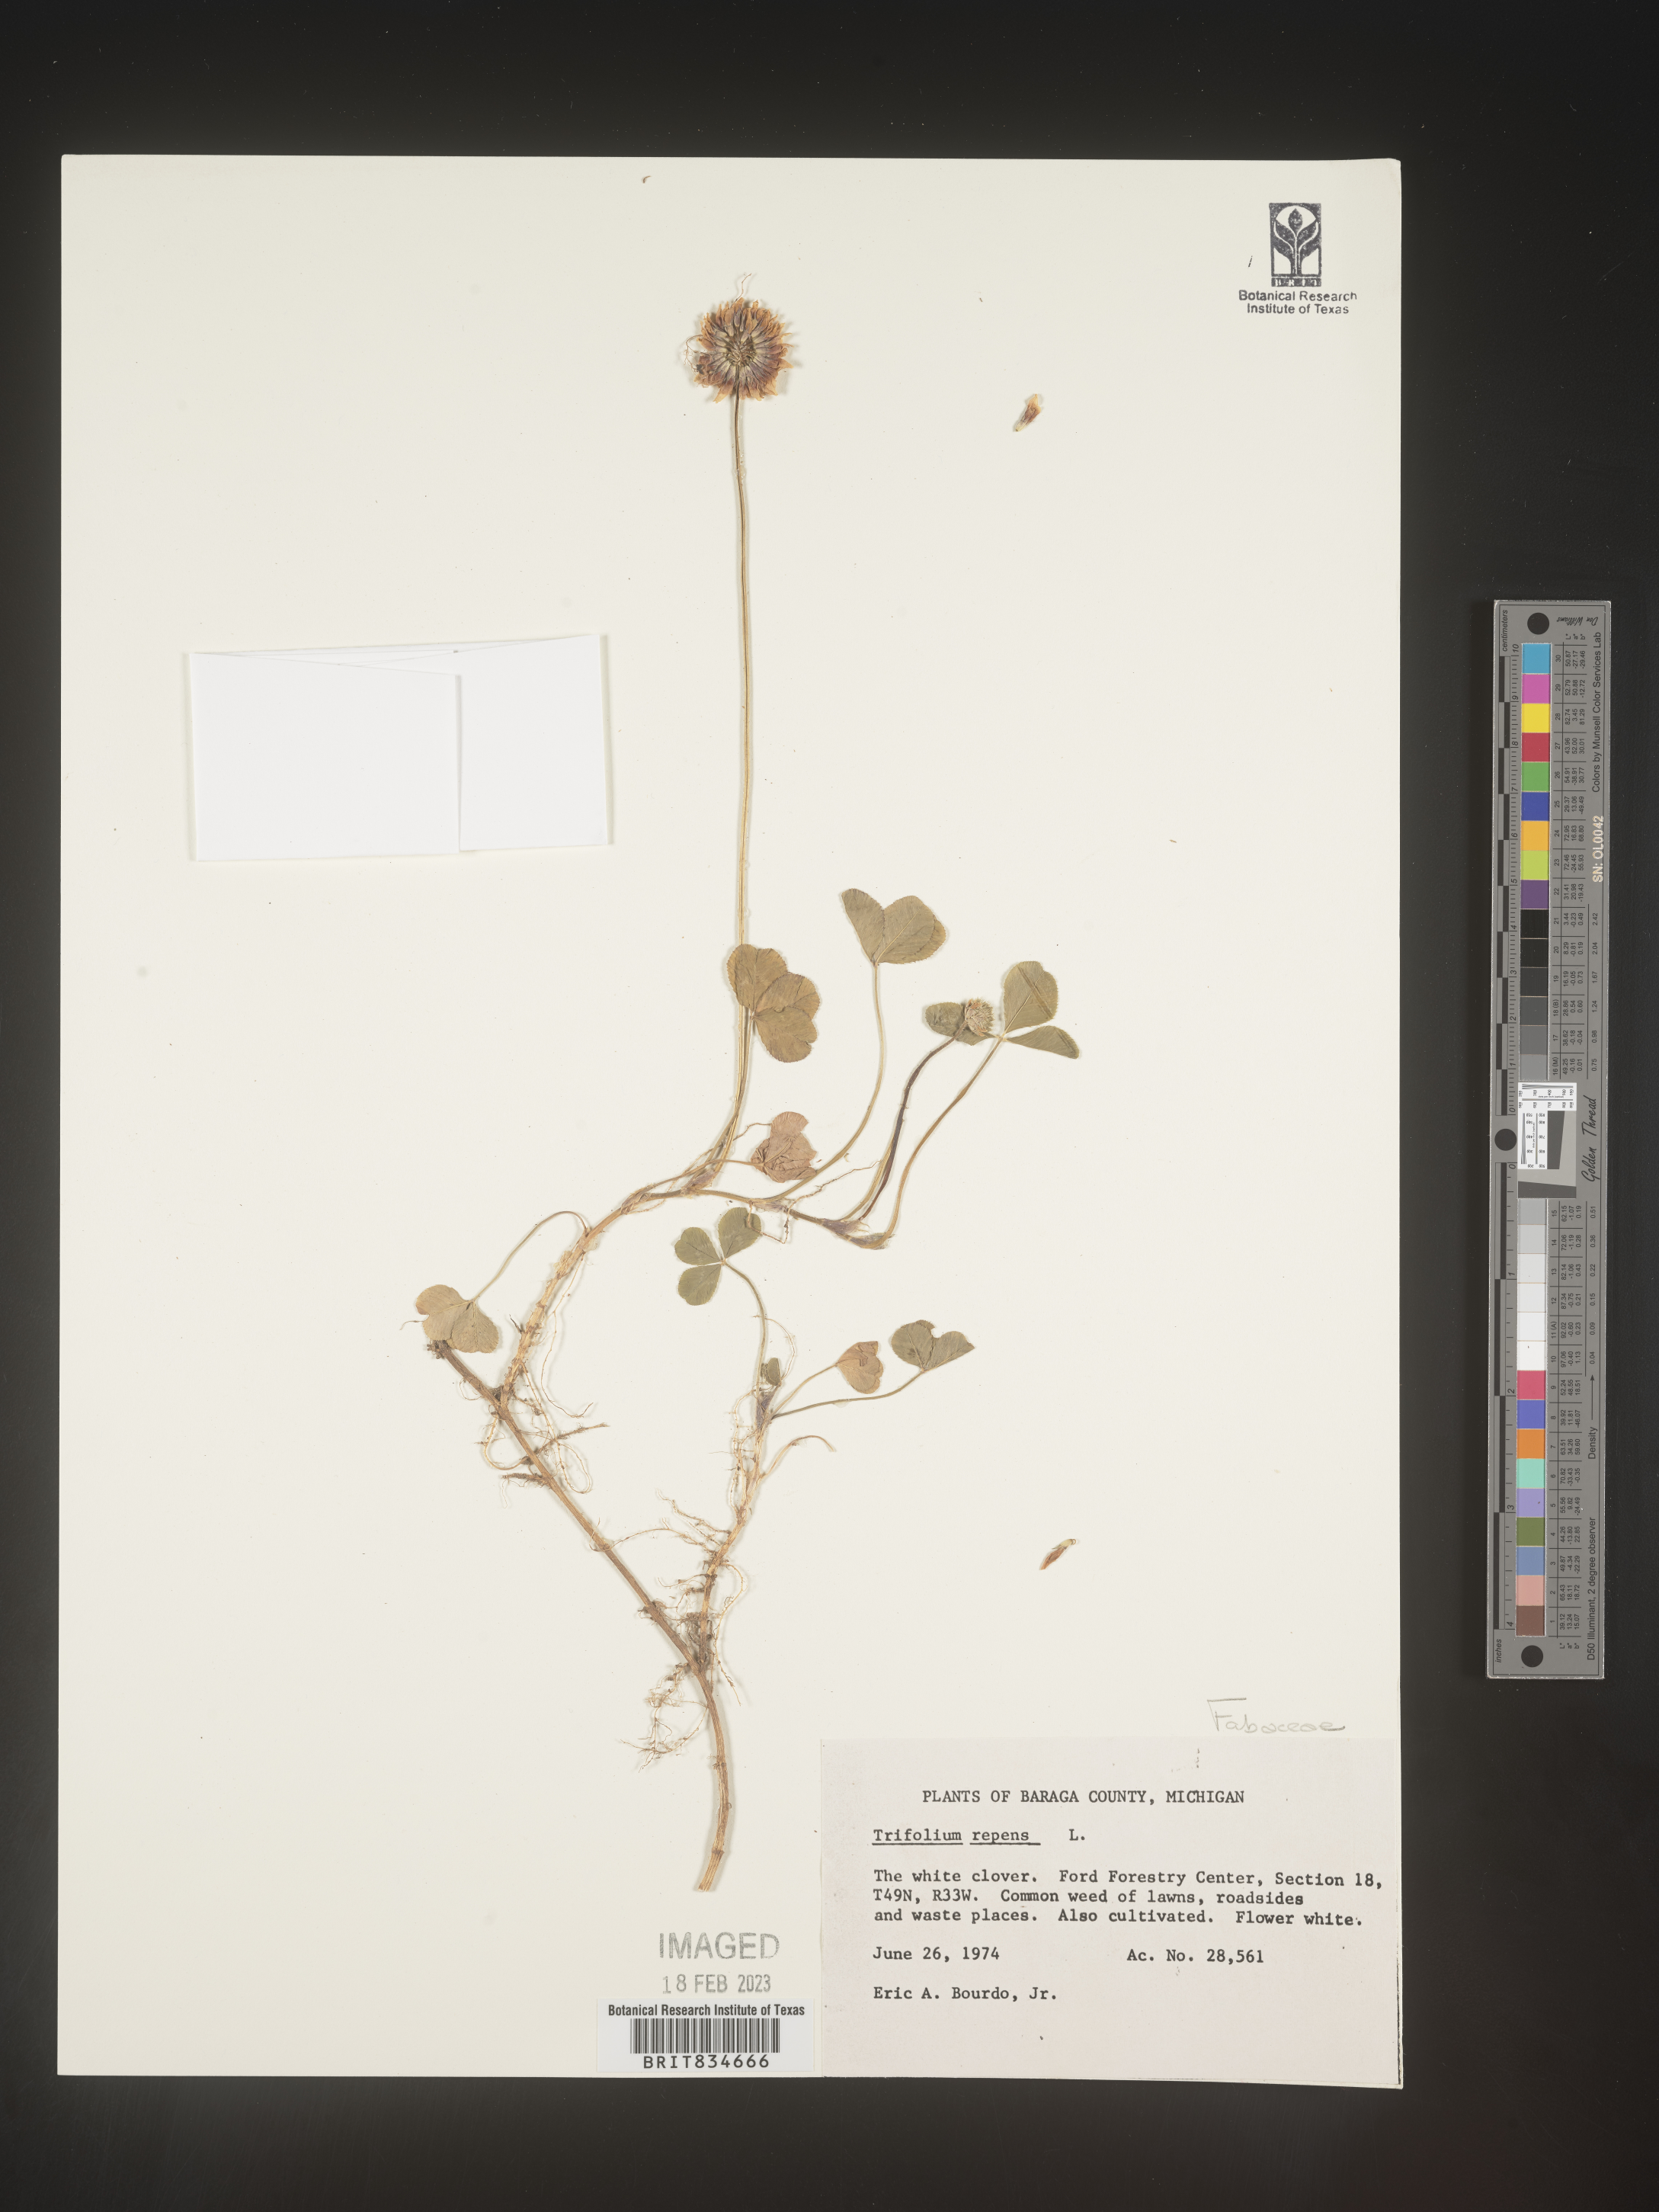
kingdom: Plantae
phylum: Tracheophyta
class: Magnoliopsida
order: Fabales
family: Fabaceae
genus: Trifolium
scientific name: Trifolium repens
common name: White clover
